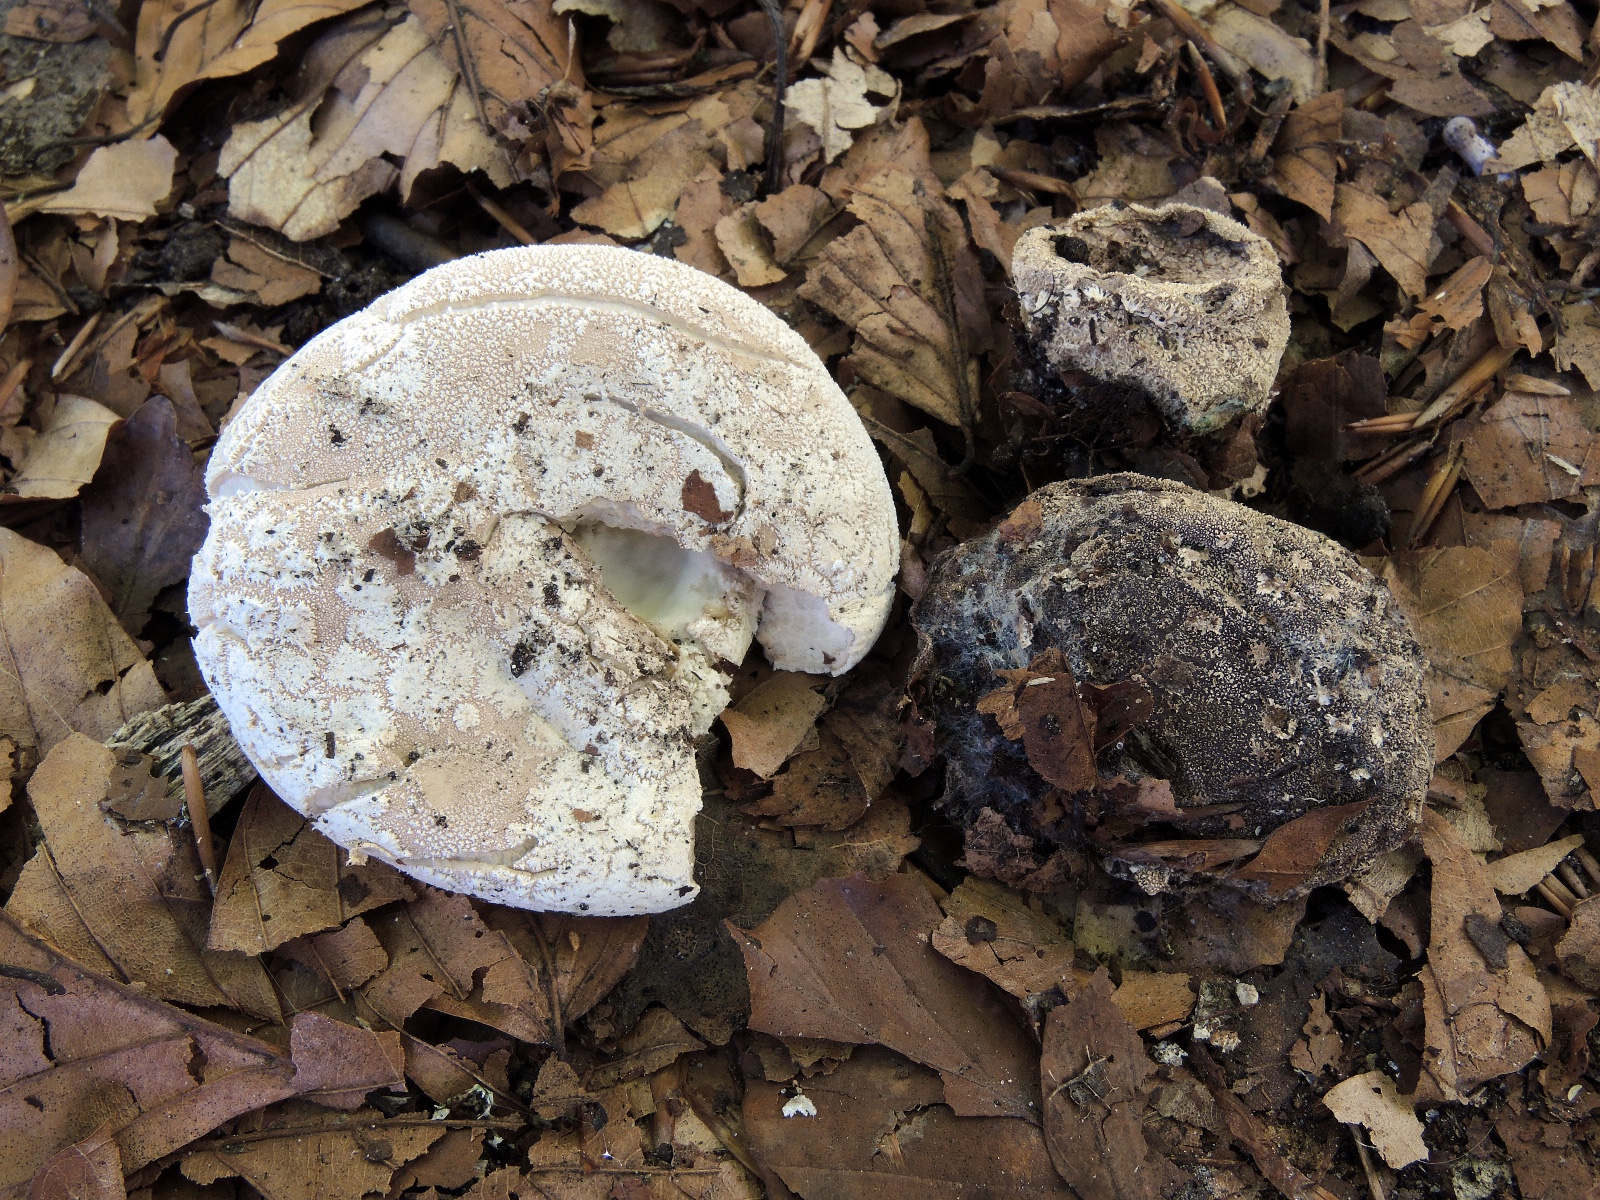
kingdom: Fungi
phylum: Basidiomycota
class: Agaricomycetes
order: Agaricales
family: Lycoperdaceae
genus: Lycoperdon
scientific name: Lycoperdon mammiforme
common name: rosa støvbold
